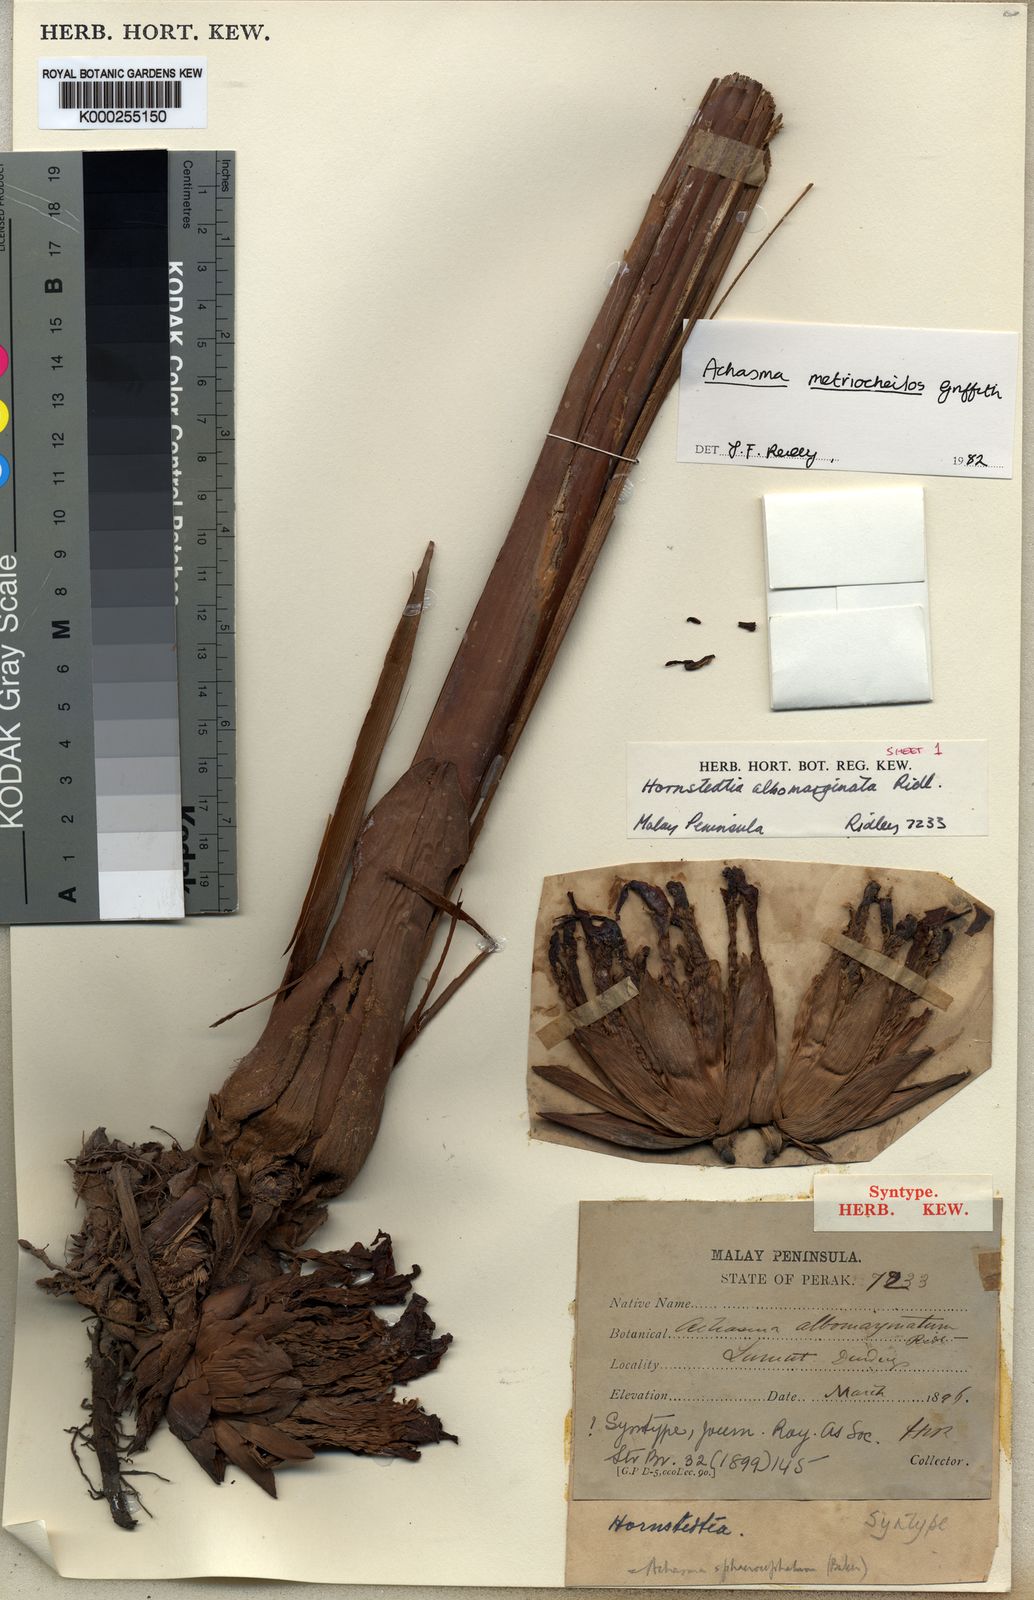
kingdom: Plantae
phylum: Tracheophyta
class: Liliopsida
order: Zingiberales
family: Zingiberaceae
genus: Etlingera
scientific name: Etlingera metriocheilos
